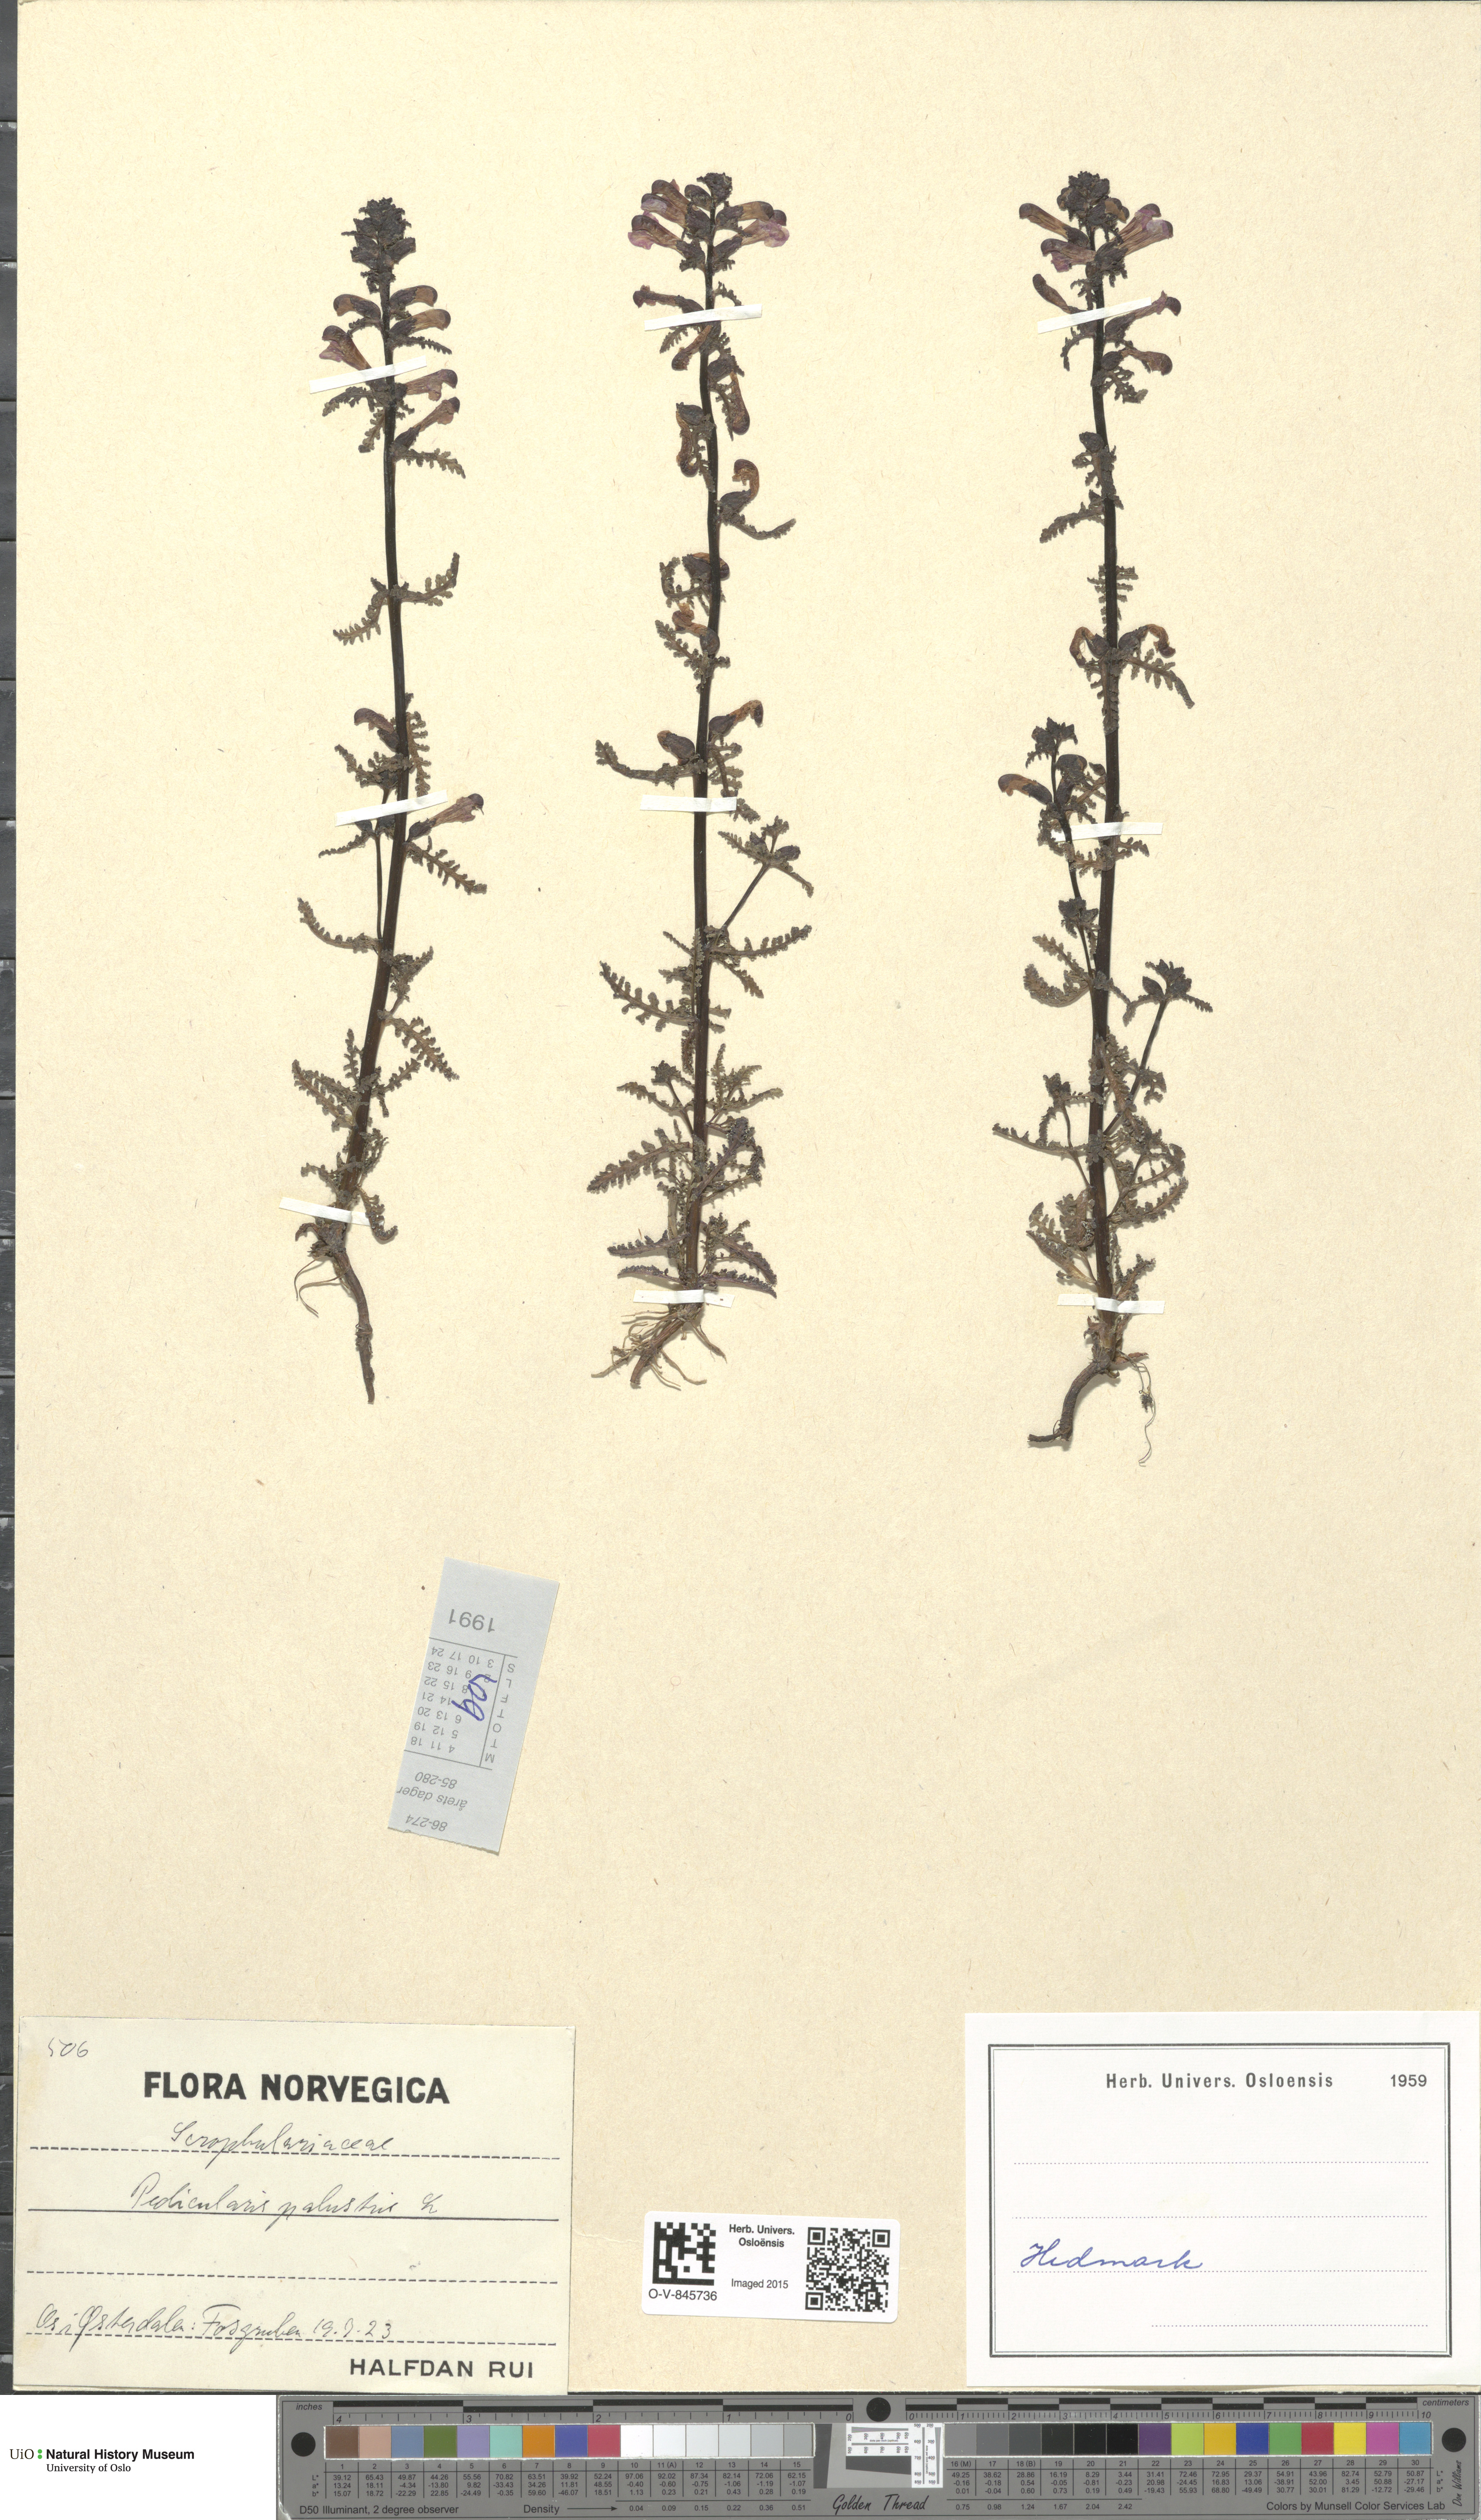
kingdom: Plantae
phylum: Tracheophyta
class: Magnoliopsida
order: Lamiales
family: Orobanchaceae
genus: Pedicularis
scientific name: Pedicularis palustris
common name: Marsh lousewort
